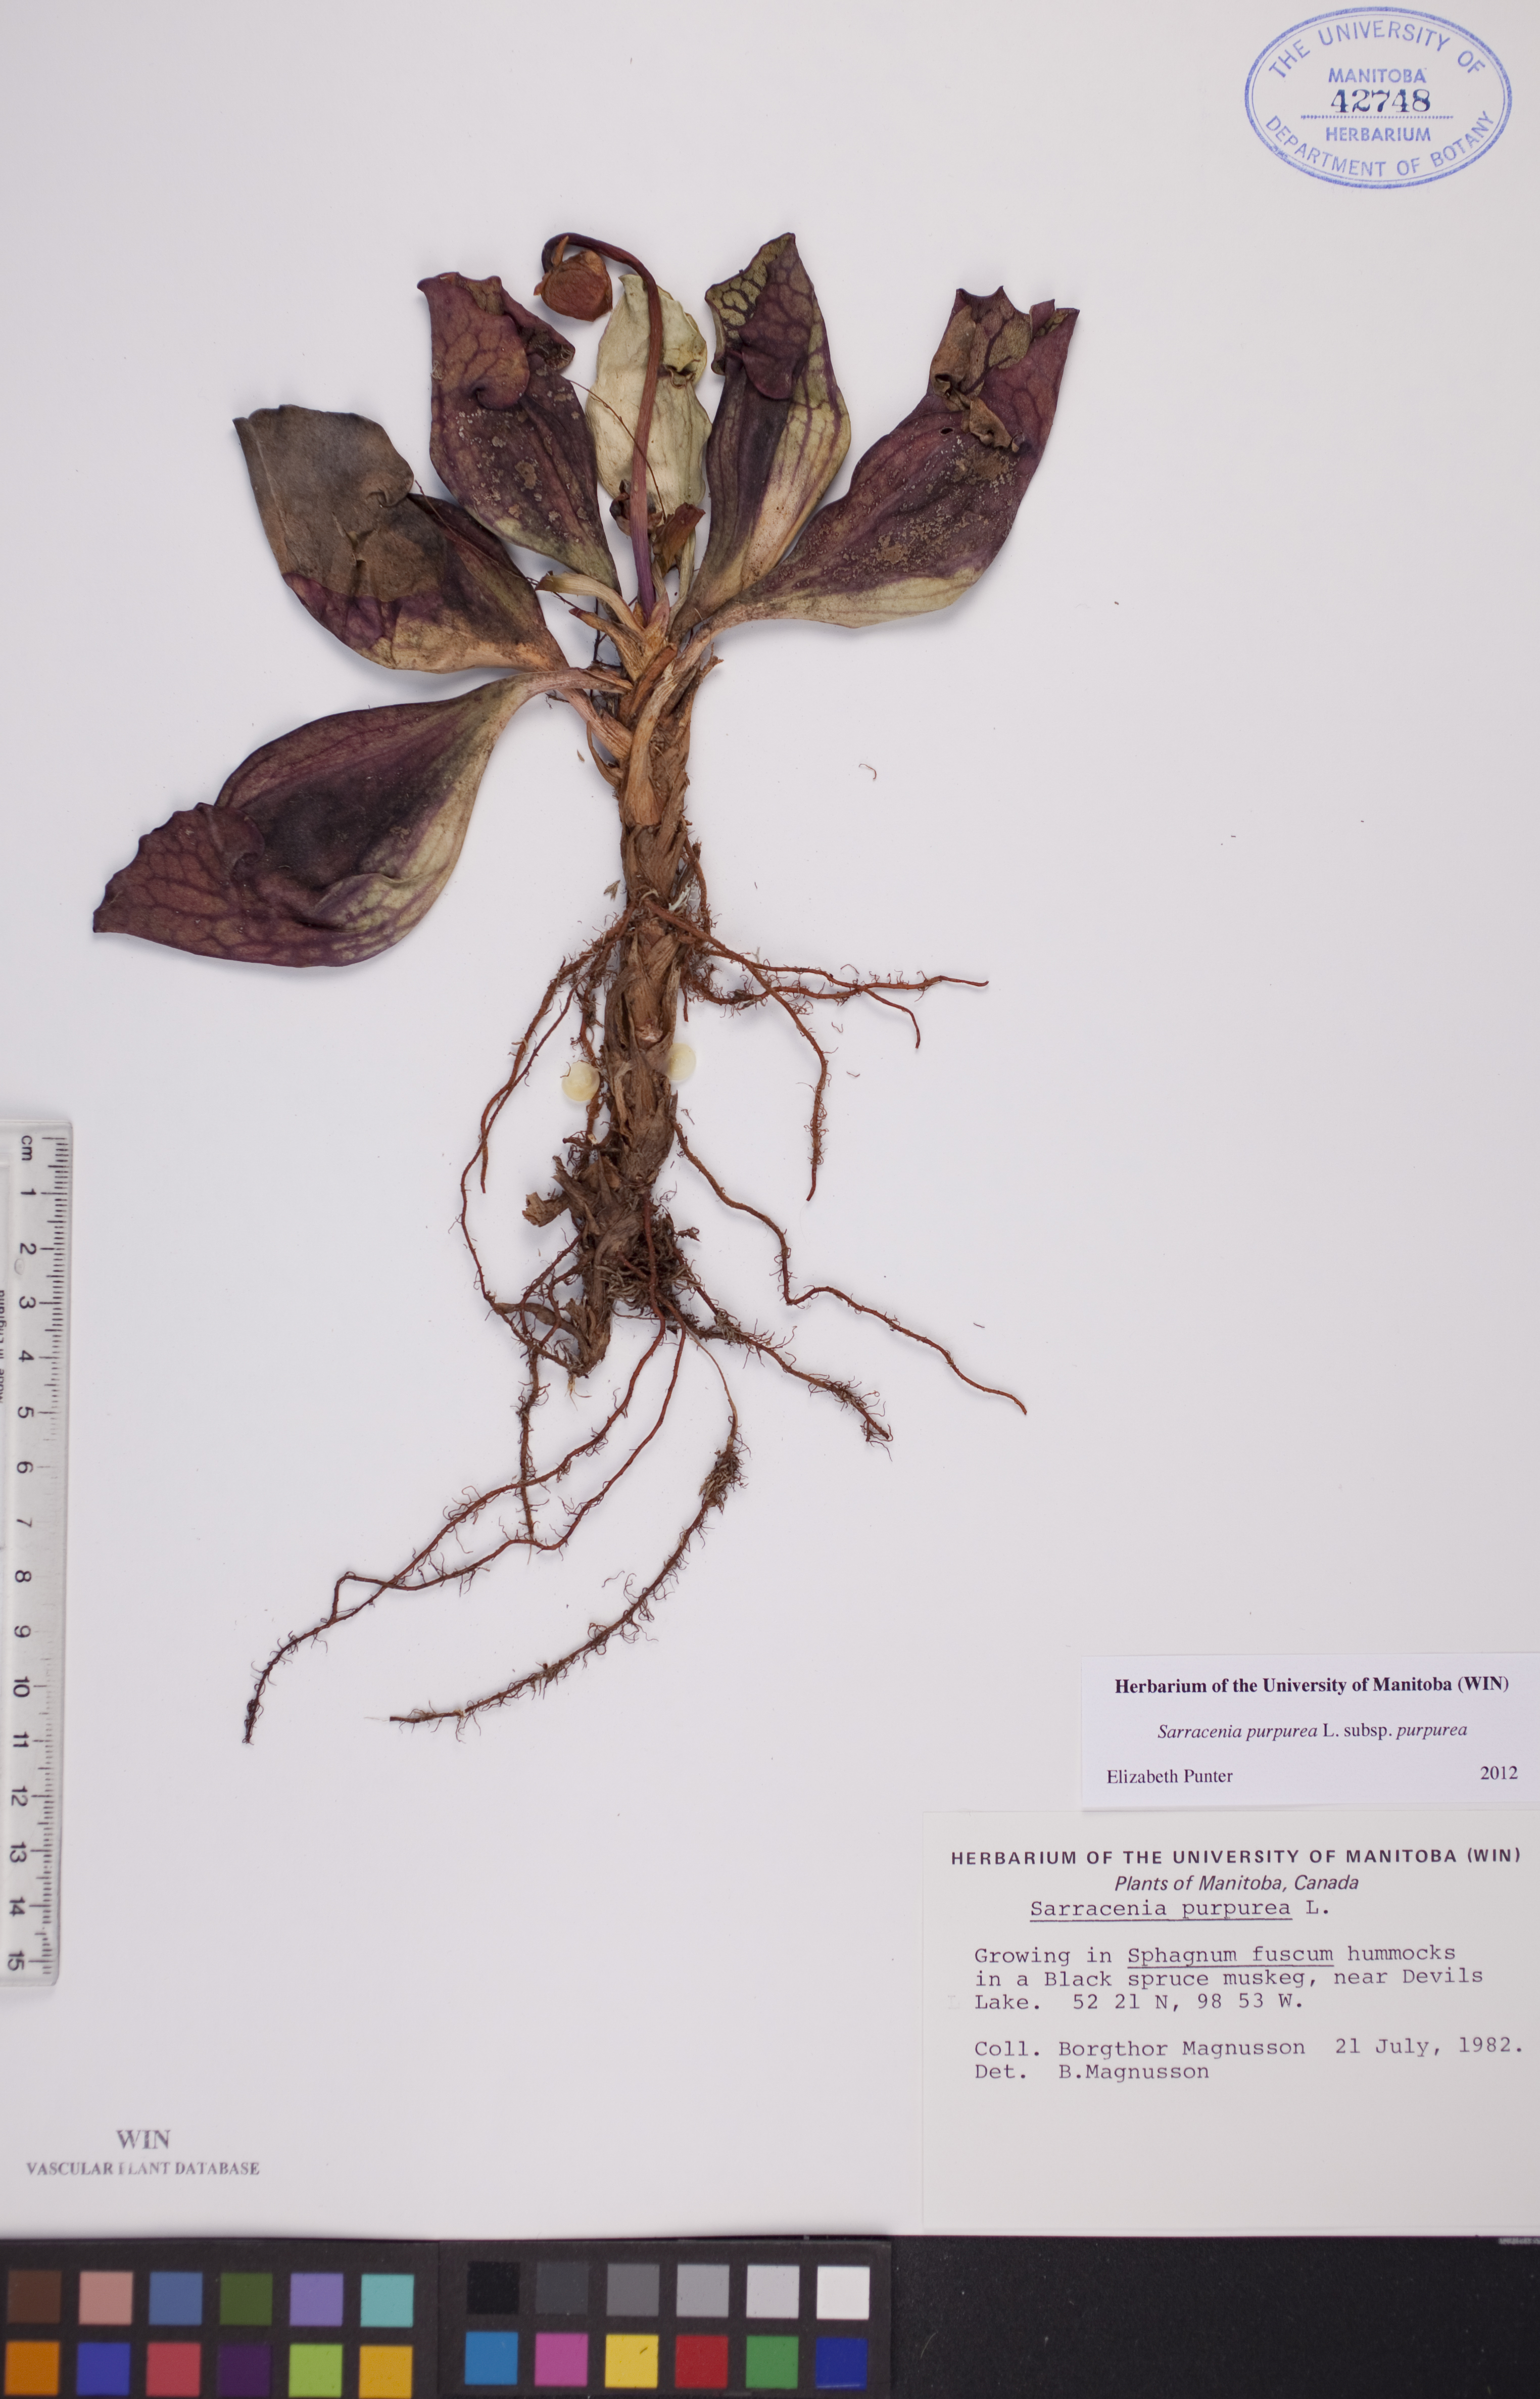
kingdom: Plantae
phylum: Tracheophyta
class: Magnoliopsida
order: Ericales
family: Sarraceniaceae
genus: Sarracenia
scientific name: Sarracenia purpurea
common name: Pitcherplant
